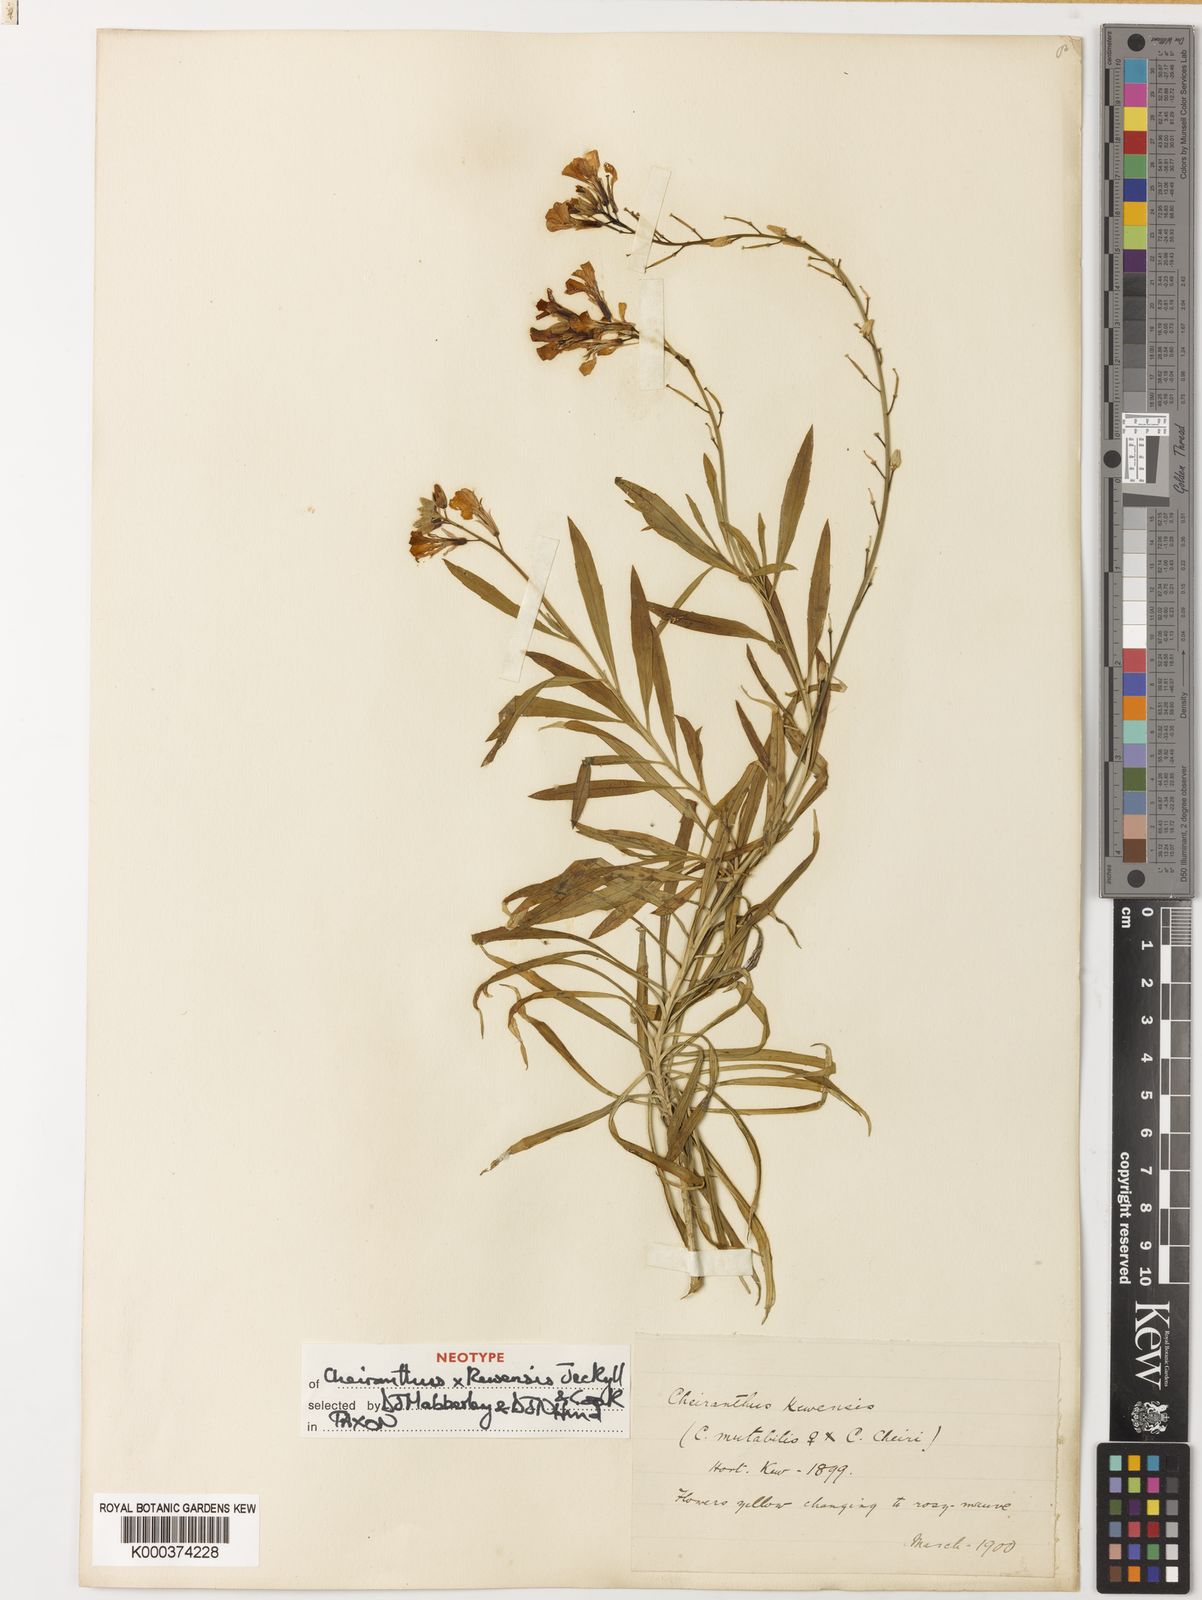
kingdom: Plantae
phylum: Tracheophyta
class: Magnoliopsida
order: Brassicales
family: Brassicaceae
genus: Erysimum
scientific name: Erysimum
